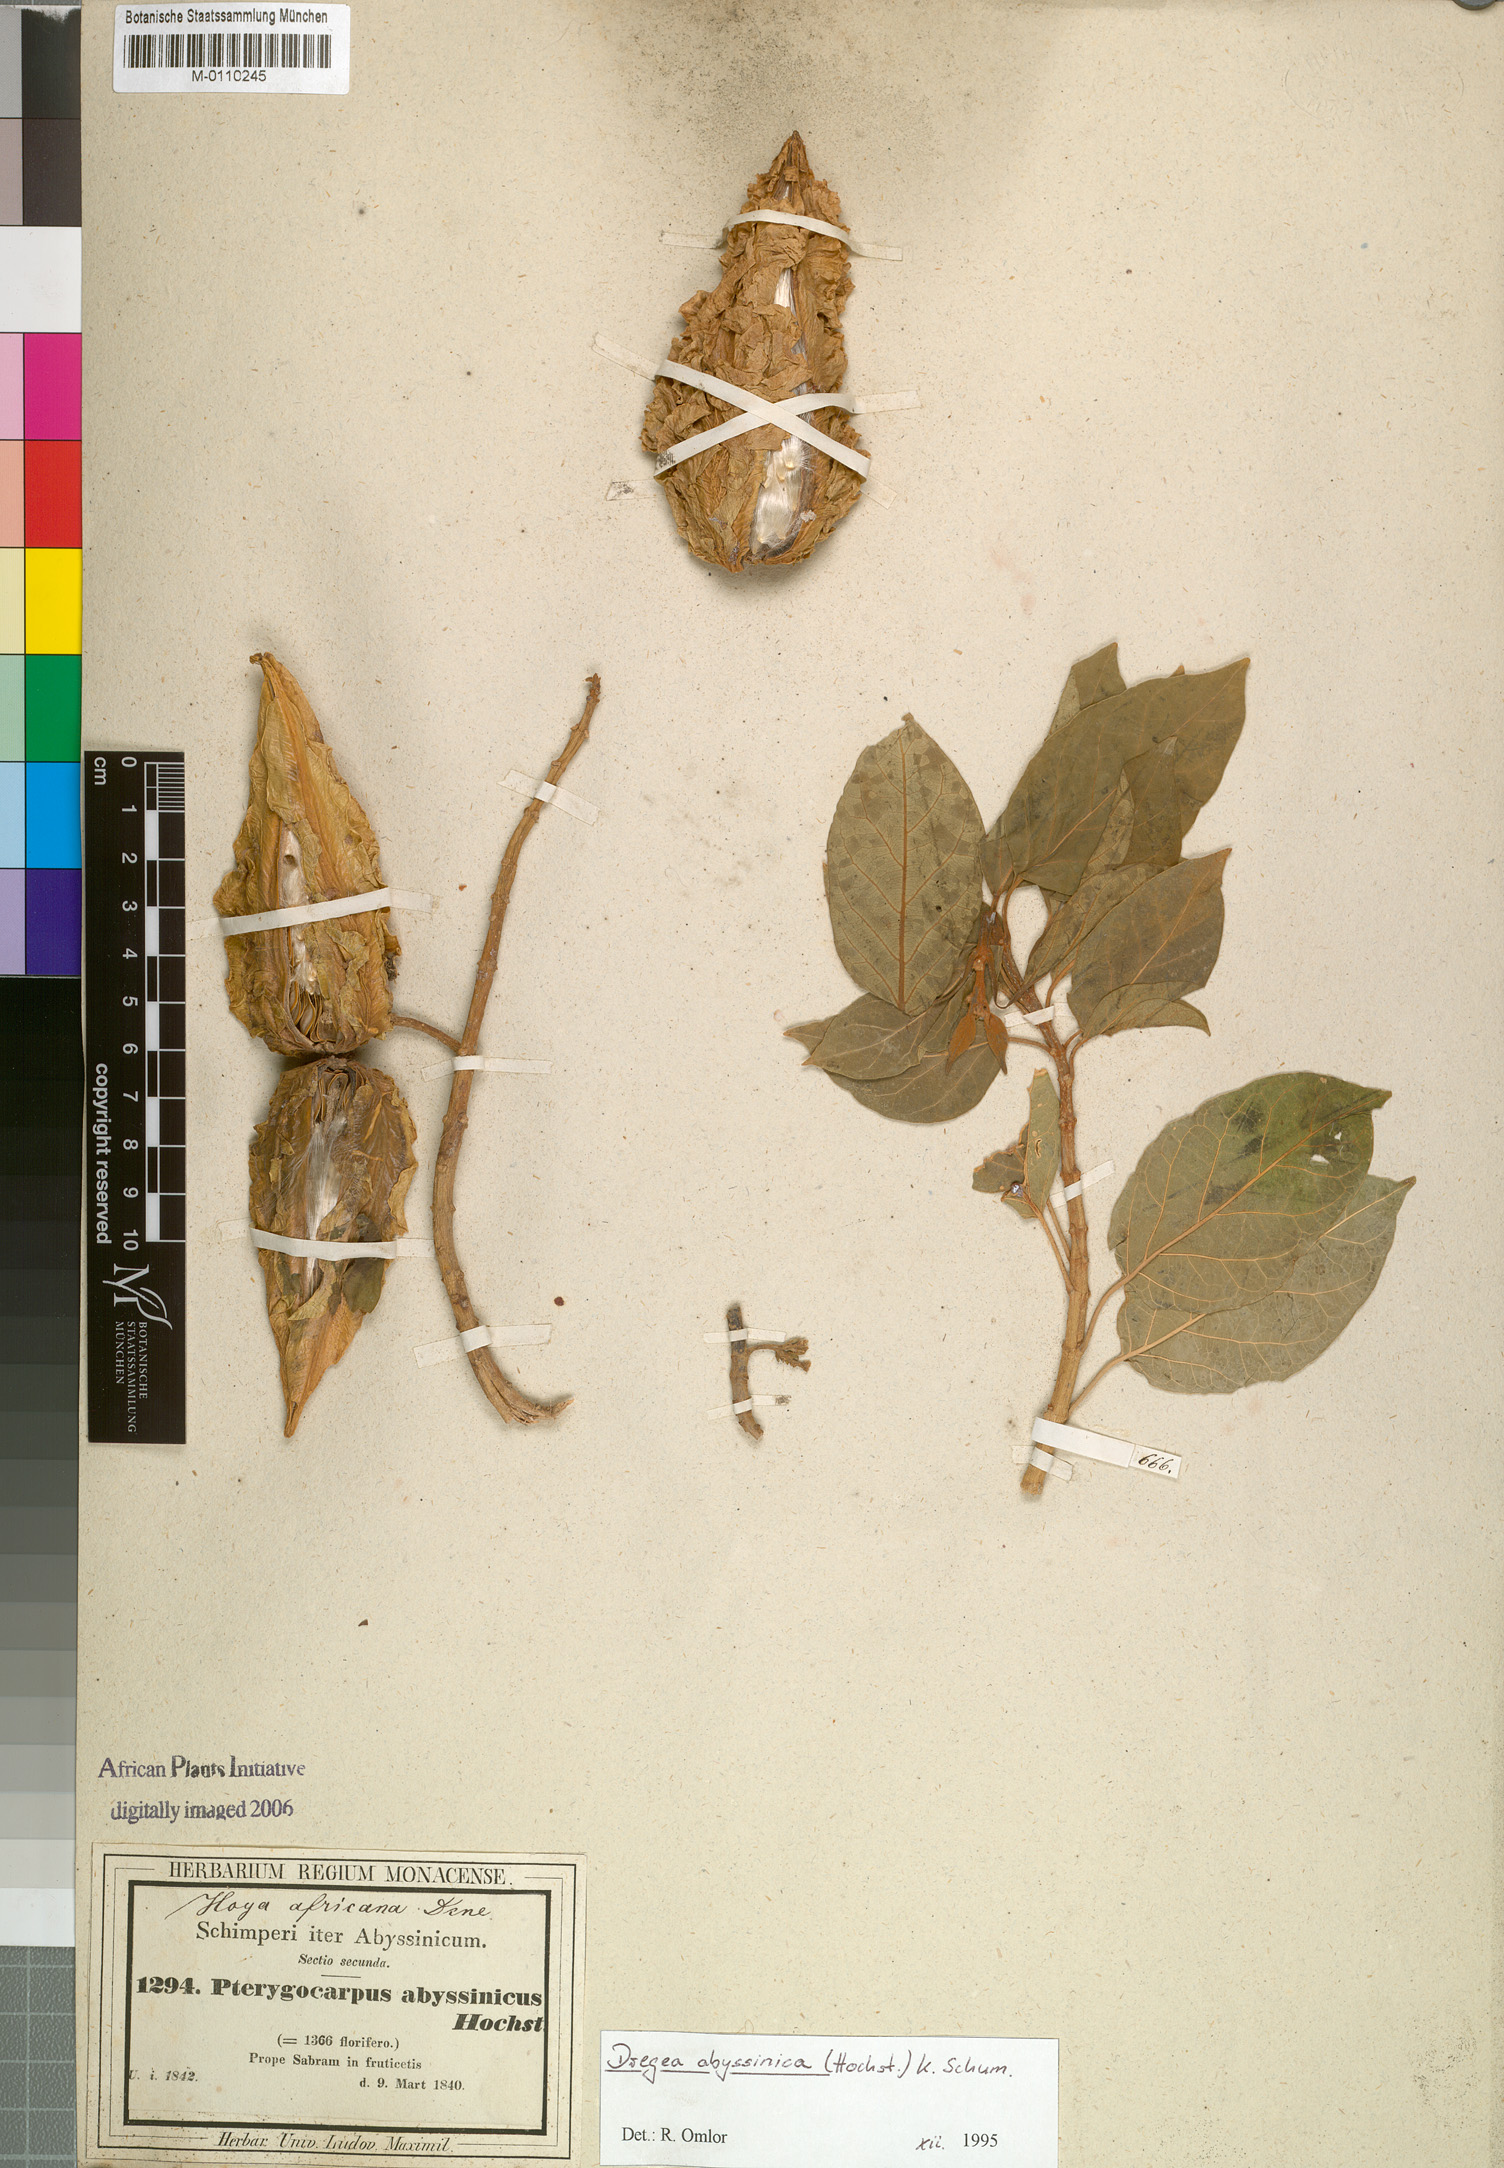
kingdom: Plantae
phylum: Tracheophyta
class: Magnoliopsida
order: Gentianales
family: Apocynaceae
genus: Stephanotis
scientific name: Stephanotis abyssinica
